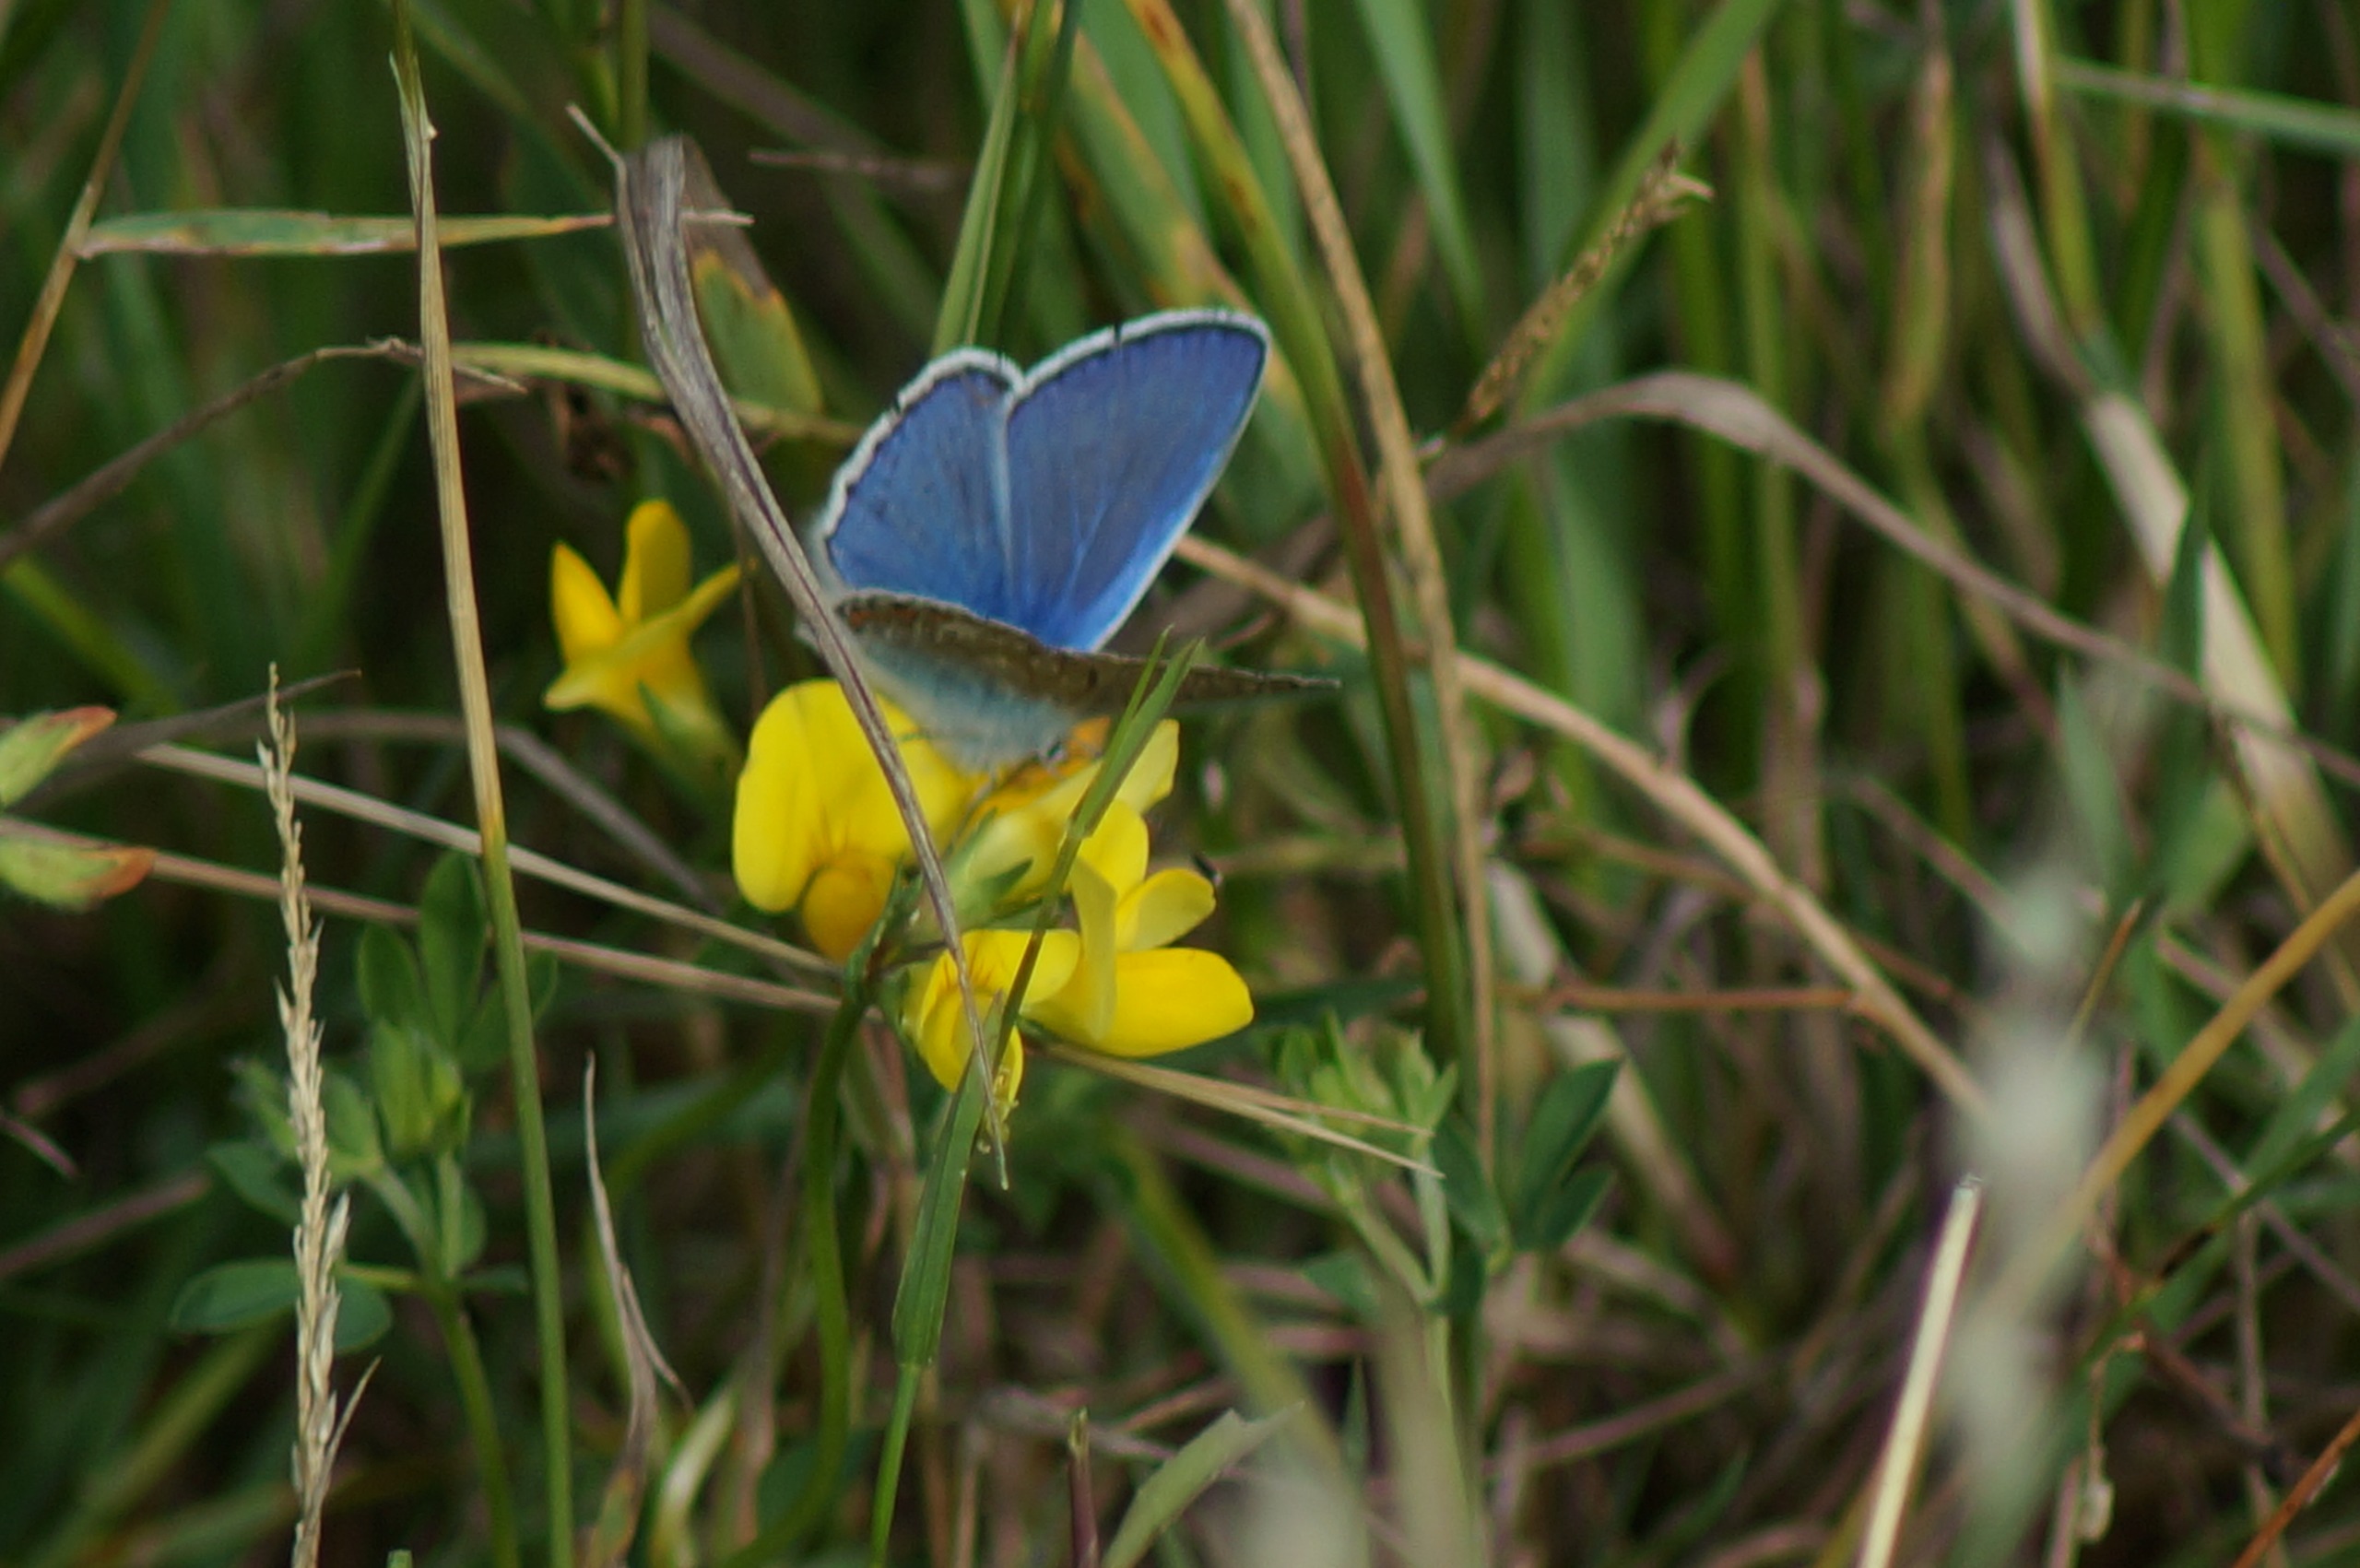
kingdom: Animalia
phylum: Arthropoda
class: Insecta
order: Lepidoptera
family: Lycaenidae
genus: Polyommatus
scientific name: Polyommatus icarus
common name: Almindelig blåfugl
